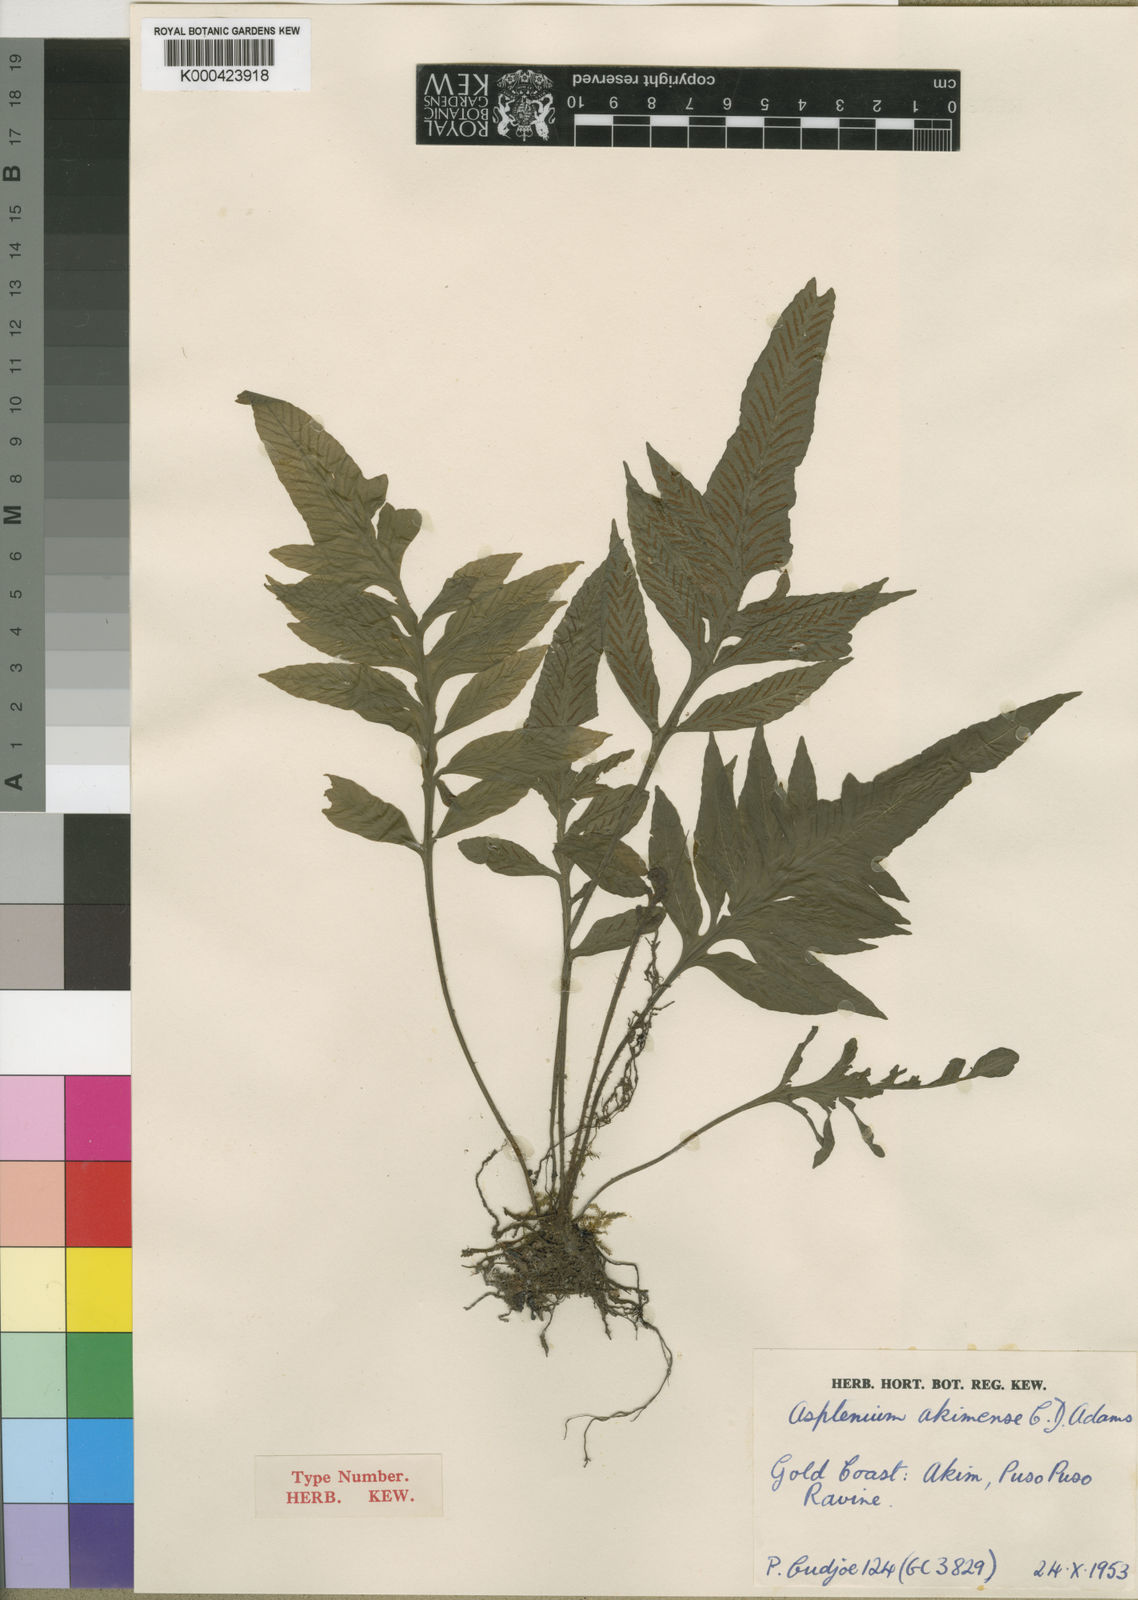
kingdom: Plantae
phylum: Tracheophyta
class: Polypodiopsida
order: Polypodiales
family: Aspleniaceae
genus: Asplenium
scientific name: Asplenium
